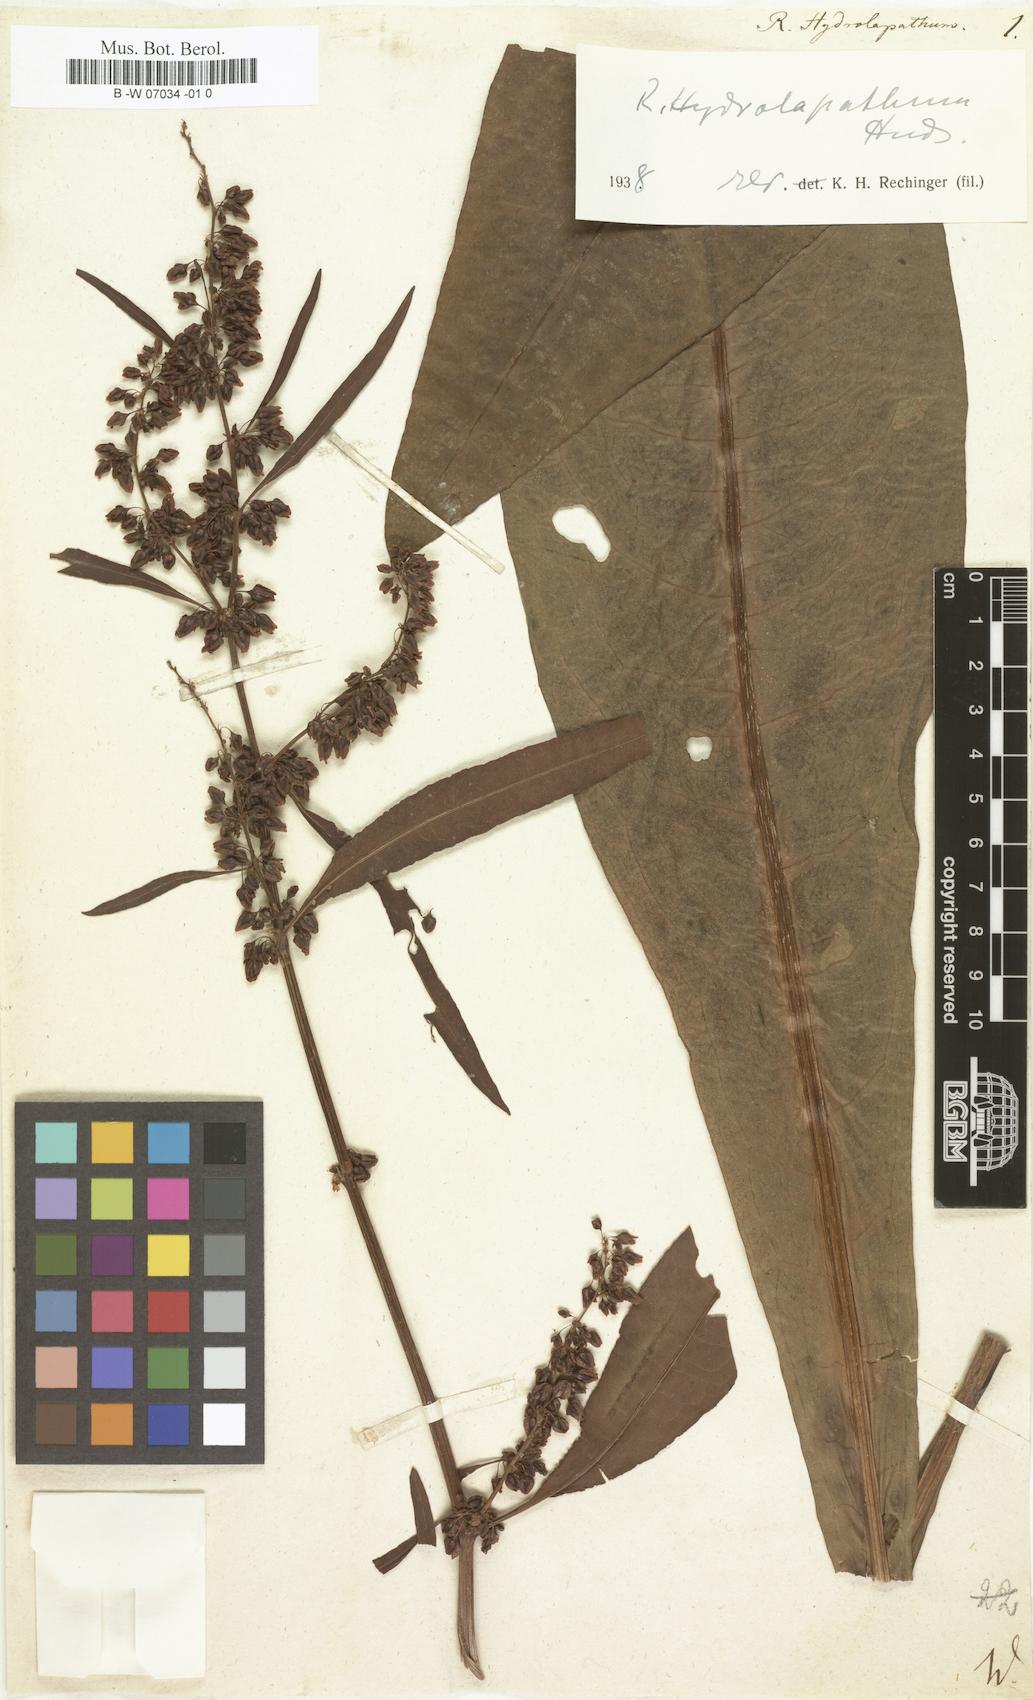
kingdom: Plantae
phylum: Tracheophyta
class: Magnoliopsida
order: Caryophyllales
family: Polygonaceae
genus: Rumex
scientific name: Rumex hydrolapathum
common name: Water dock
